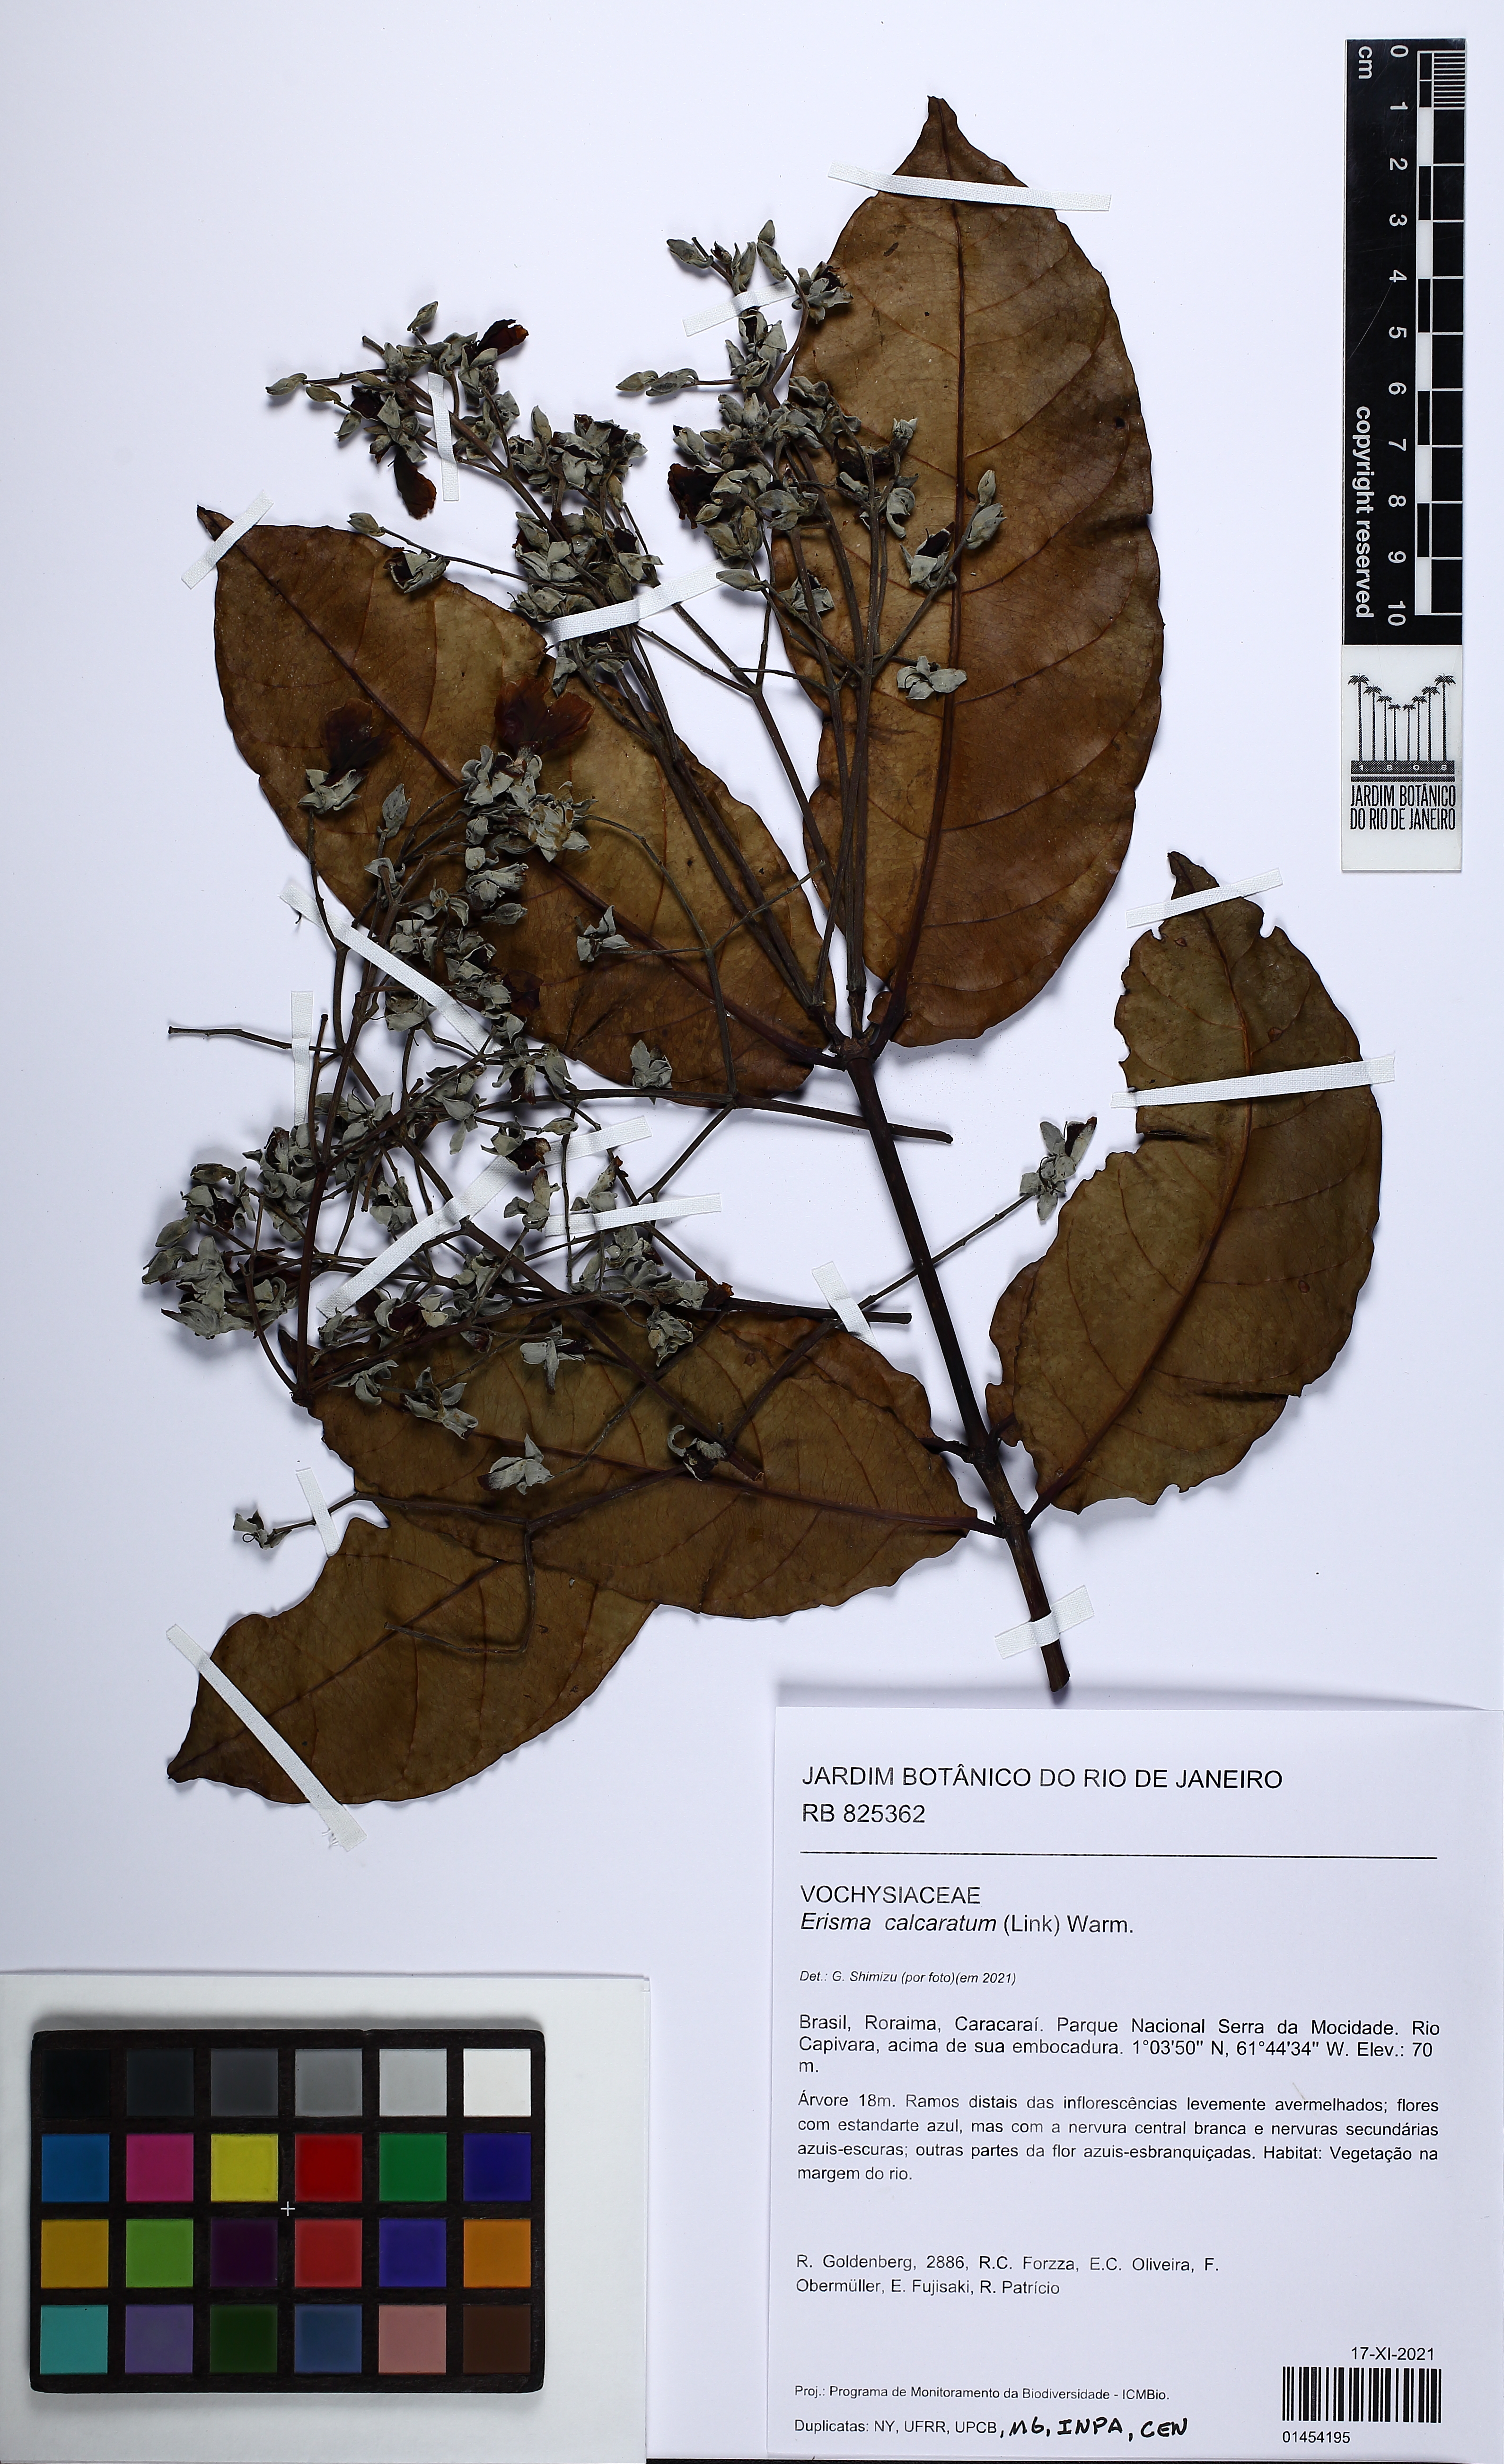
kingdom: Plantae
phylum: Tracheophyta
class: Magnoliopsida
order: Myrtales
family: Vochysiaceae
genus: Erisma
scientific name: Erisma calcaratum
